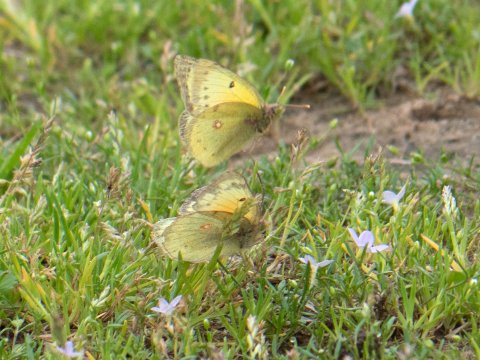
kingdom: Animalia
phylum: Arthropoda
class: Insecta
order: Lepidoptera
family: Pieridae
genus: Colias
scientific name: Colias eurytheme
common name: Orange Sulphur
